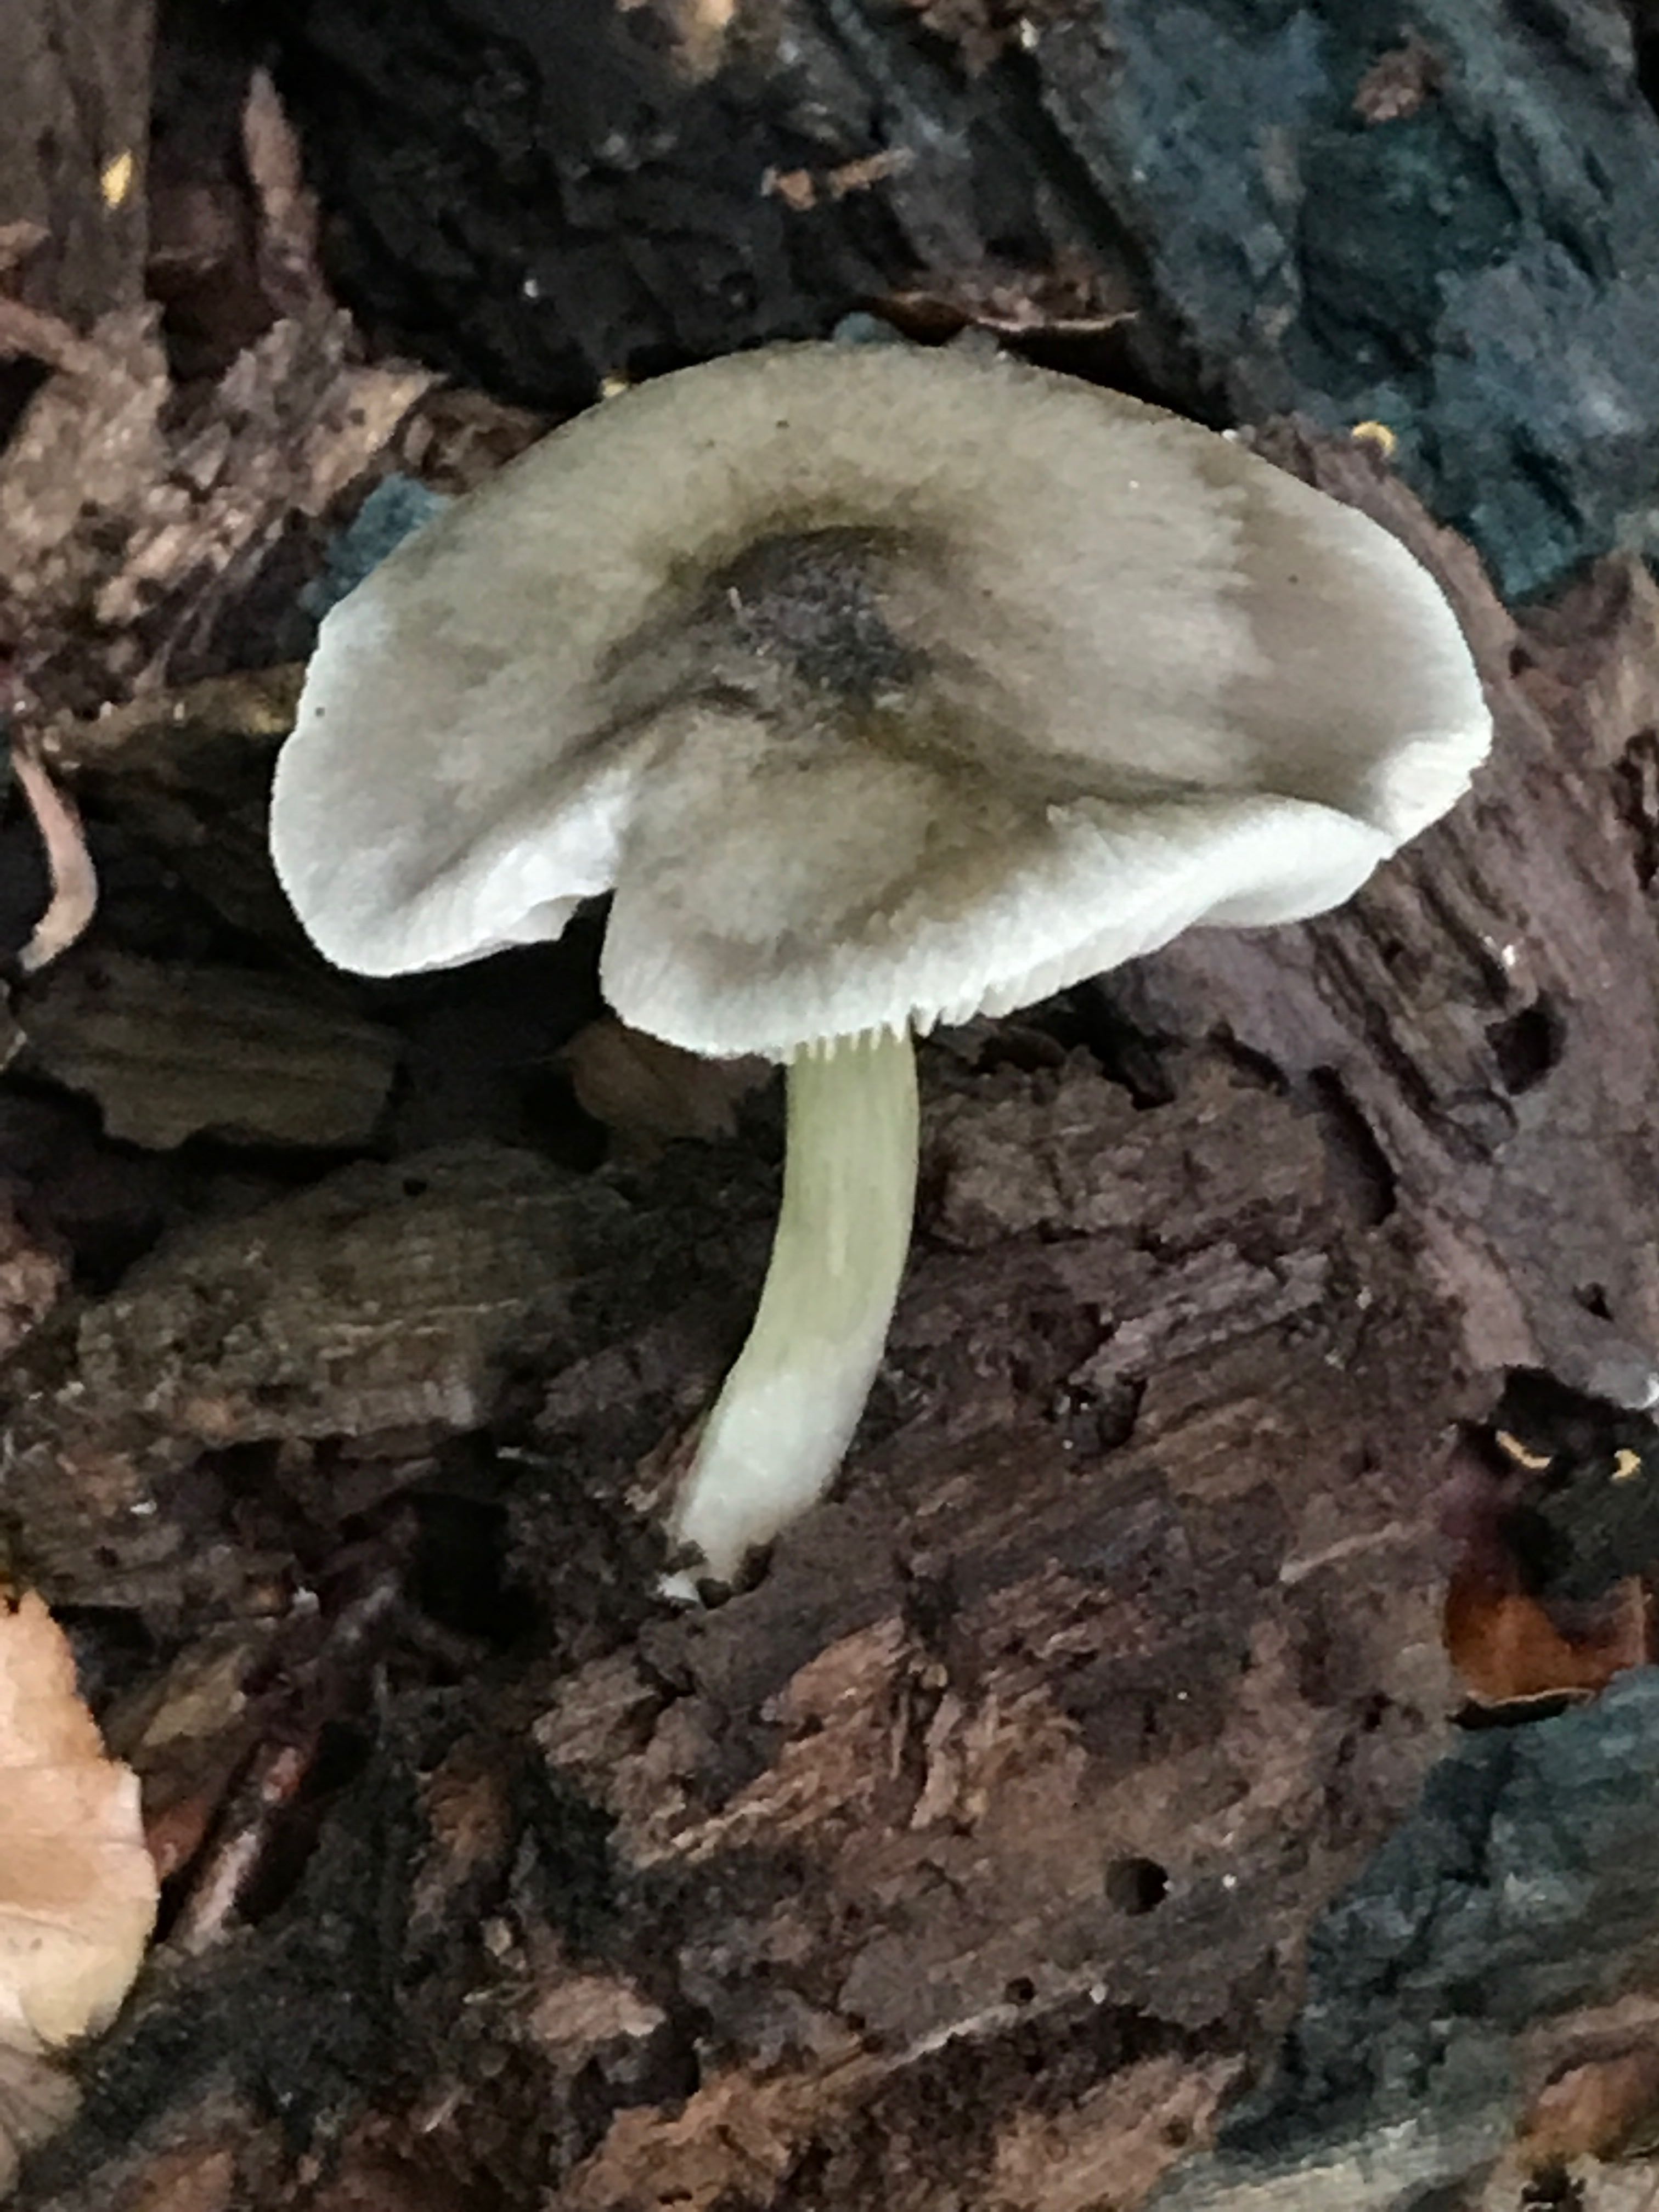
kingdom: Fungi
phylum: Basidiomycota
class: Agaricomycetes
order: Agaricales
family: Pluteaceae
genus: Pluteus
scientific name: Pluteus salicinus
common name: stiv skærmhat
